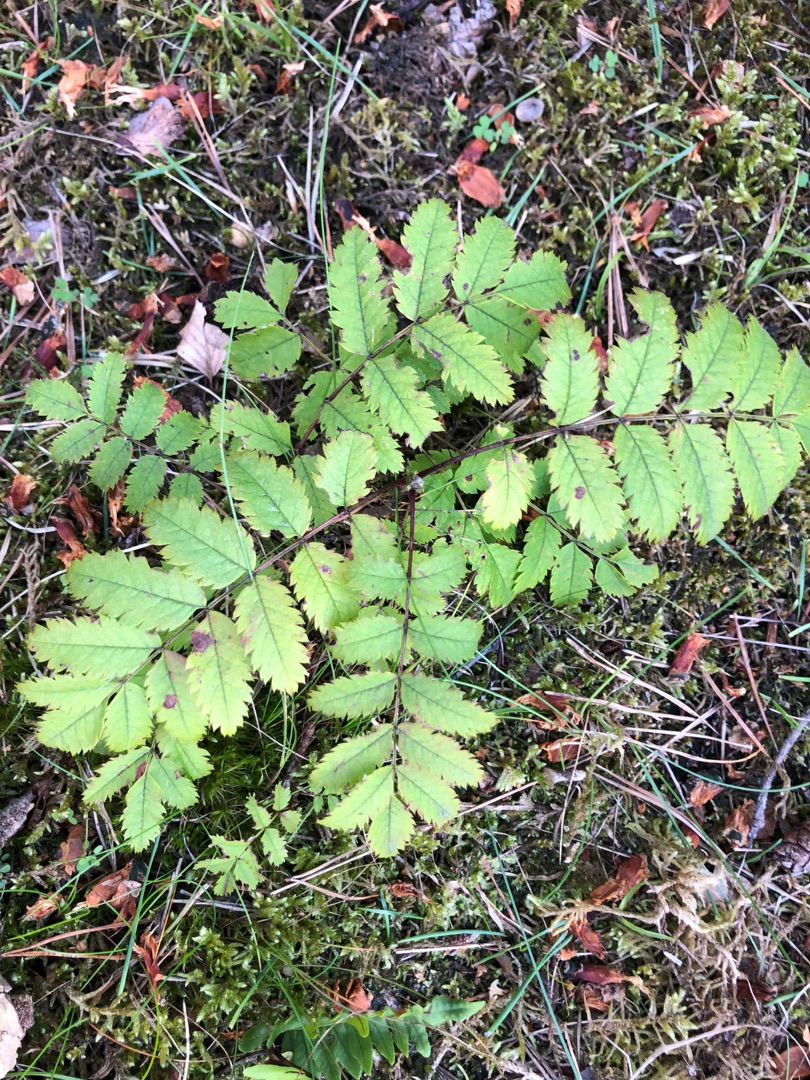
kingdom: Plantae
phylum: Tracheophyta
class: Magnoliopsida
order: Rosales
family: Rosaceae
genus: Sorbus
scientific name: Sorbus aucuparia
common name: Almindelig røn
